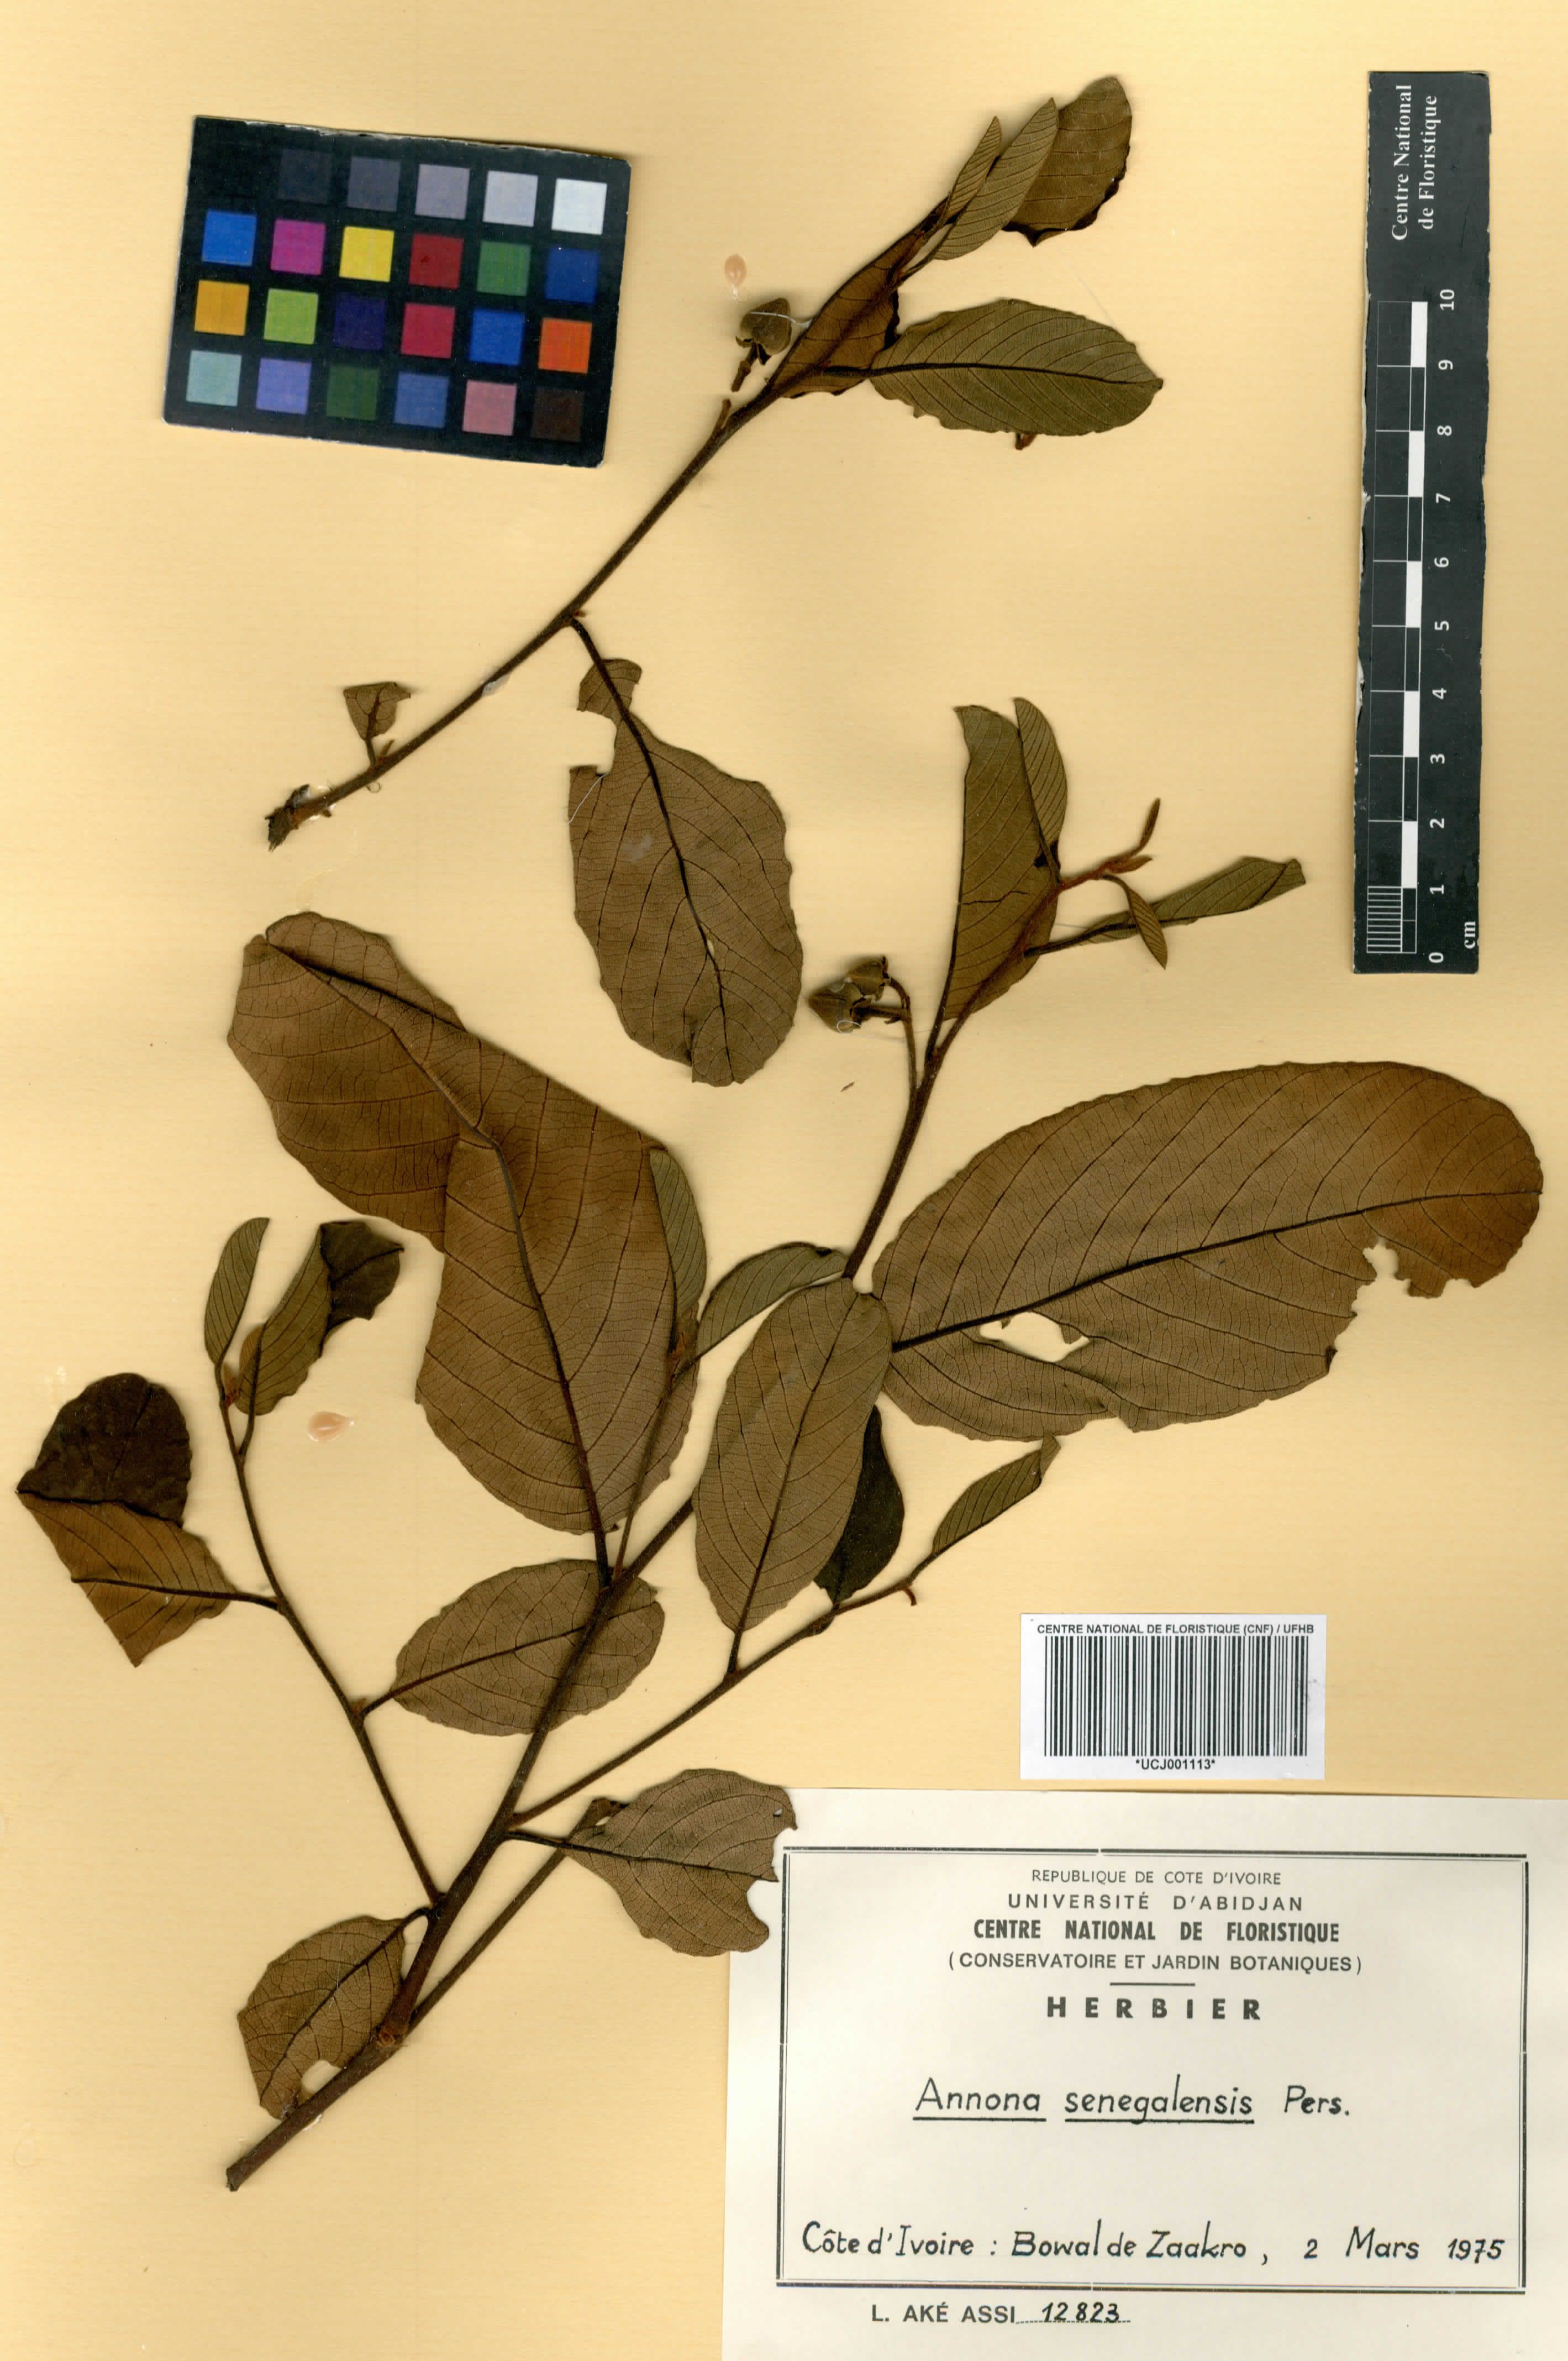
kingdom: Plantae
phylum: Tracheophyta
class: Magnoliopsida
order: Magnoliales
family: Annonaceae
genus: Annona
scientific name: Annona senegalensis
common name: Wild custard-apple
